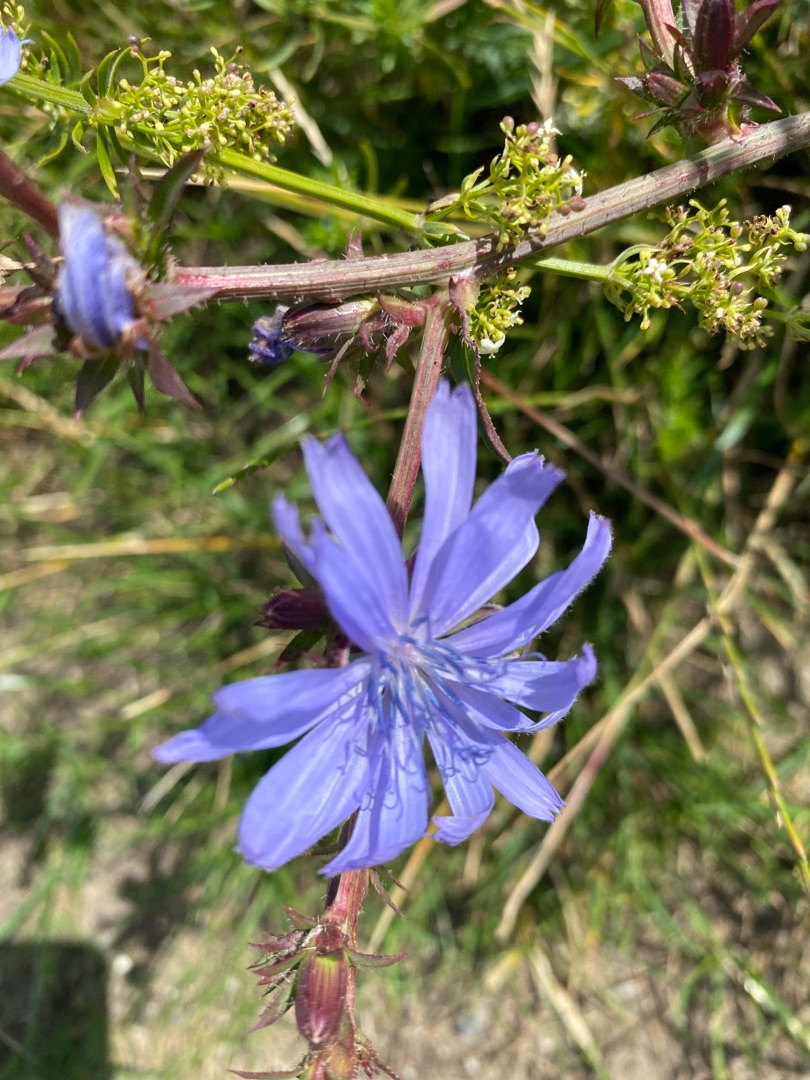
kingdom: Plantae
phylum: Tracheophyta
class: Magnoliopsida
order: Asterales
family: Asteraceae
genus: Cichorium
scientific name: Cichorium intybus
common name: Cikorie
